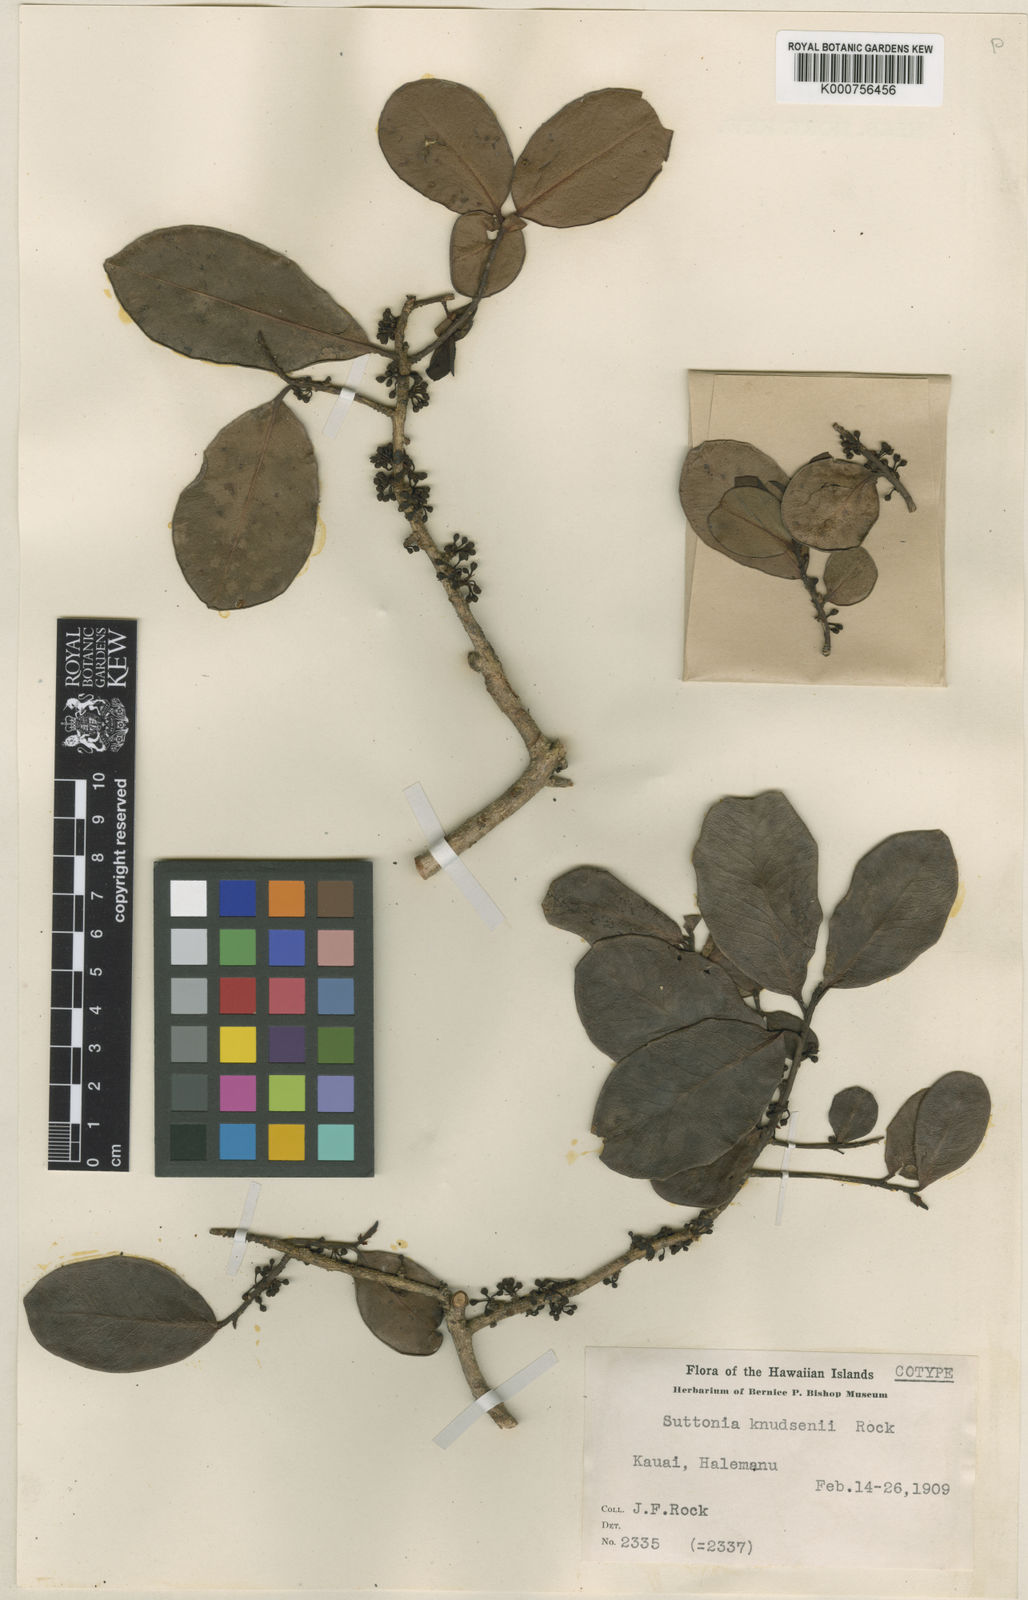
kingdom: Plantae
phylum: Tracheophyta
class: Magnoliopsida
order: Ericales
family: Primulaceae
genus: Myrsine
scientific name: Myrsine knudsenii
